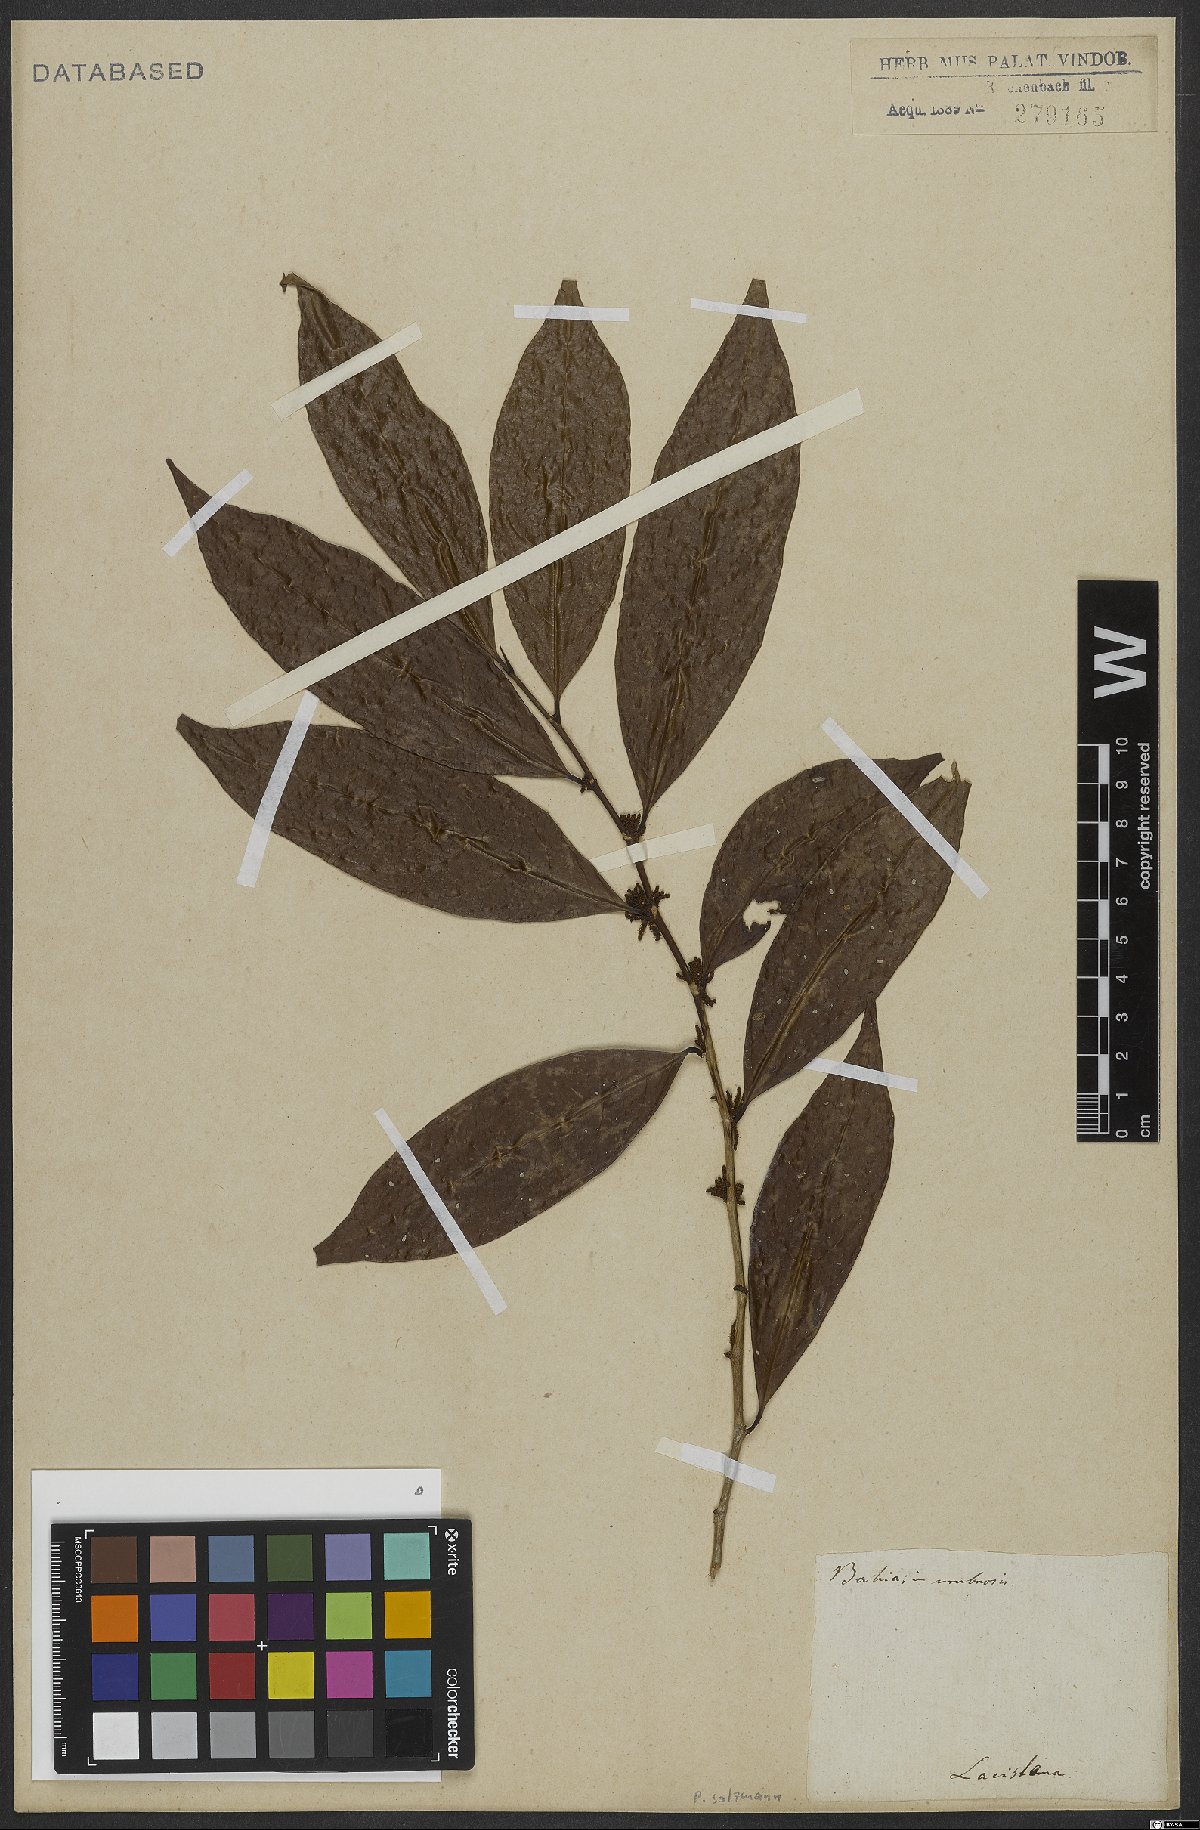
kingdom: Plantae
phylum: Tracheophyta
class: Magnoliopsida
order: Malpighiales
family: Lacistemataceae
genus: Lacistema
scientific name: Lacistema
